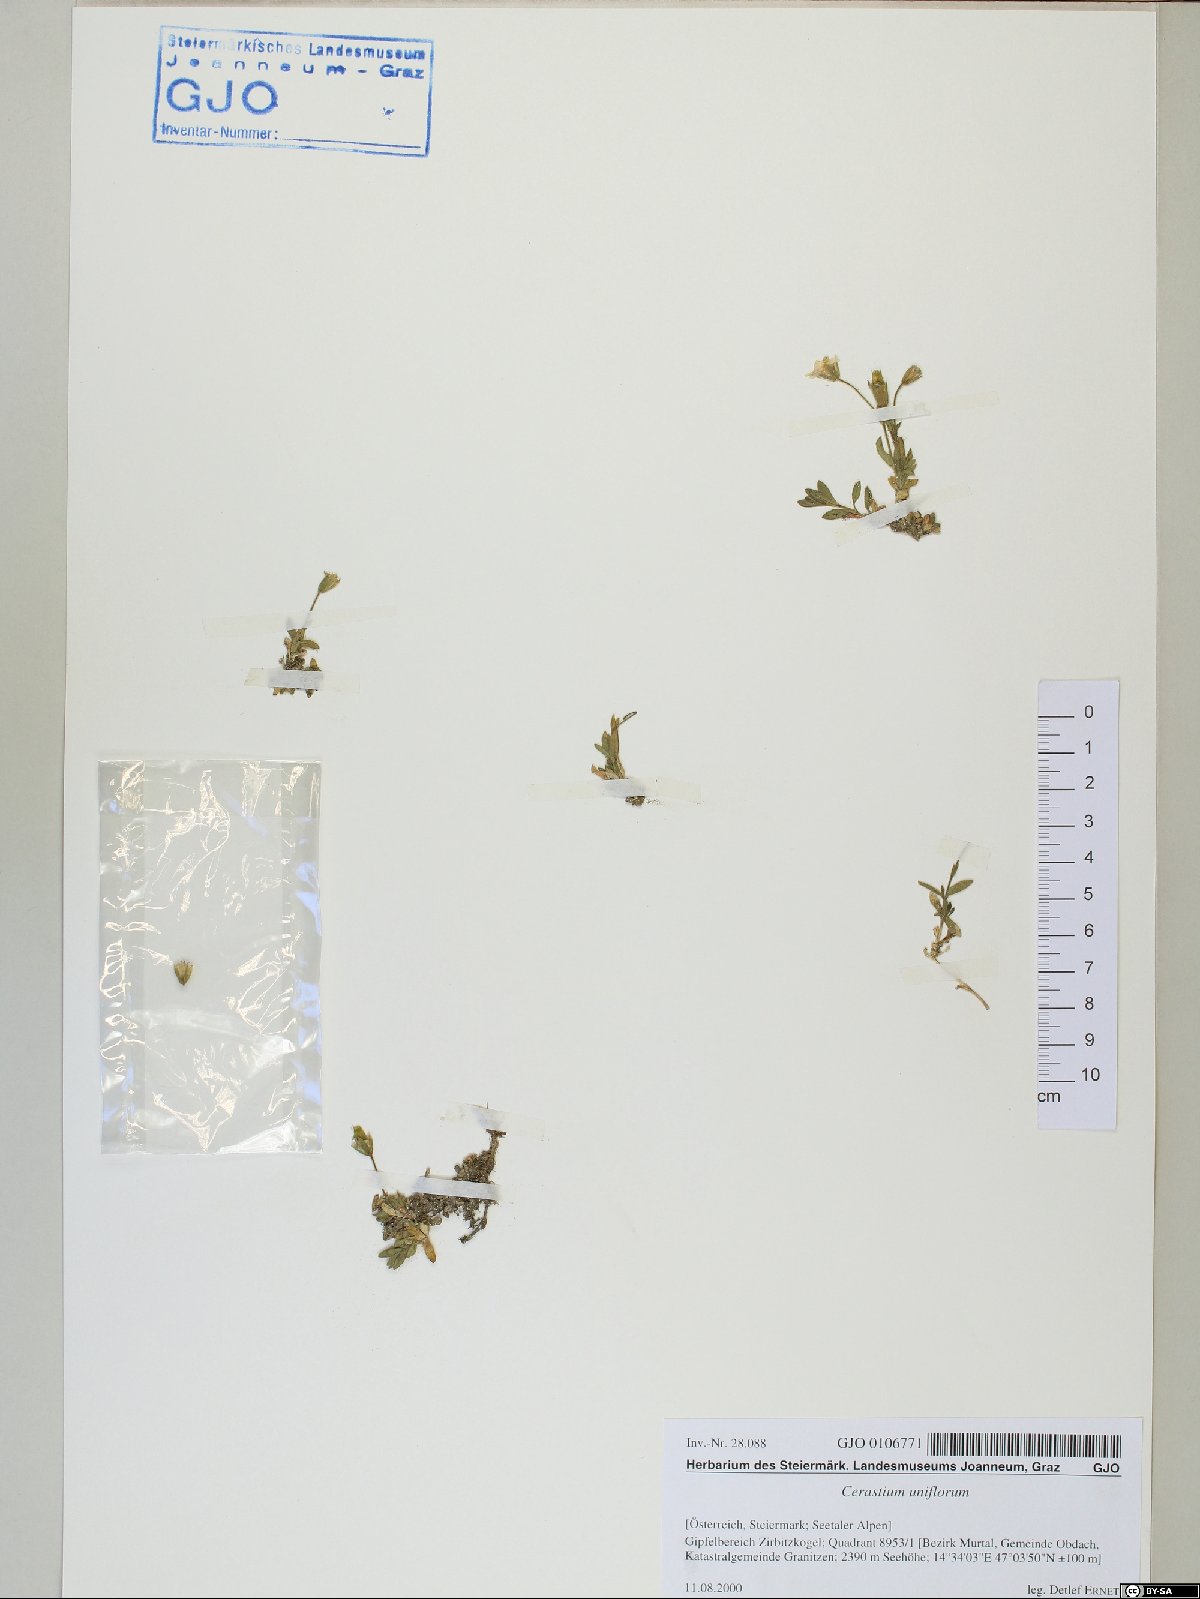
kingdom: Plantae
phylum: Tracheophyta
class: Magnoliopsida
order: Caryophyllales
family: Caryophyllaceae
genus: Cerastium
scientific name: Cerastium uniflorum
